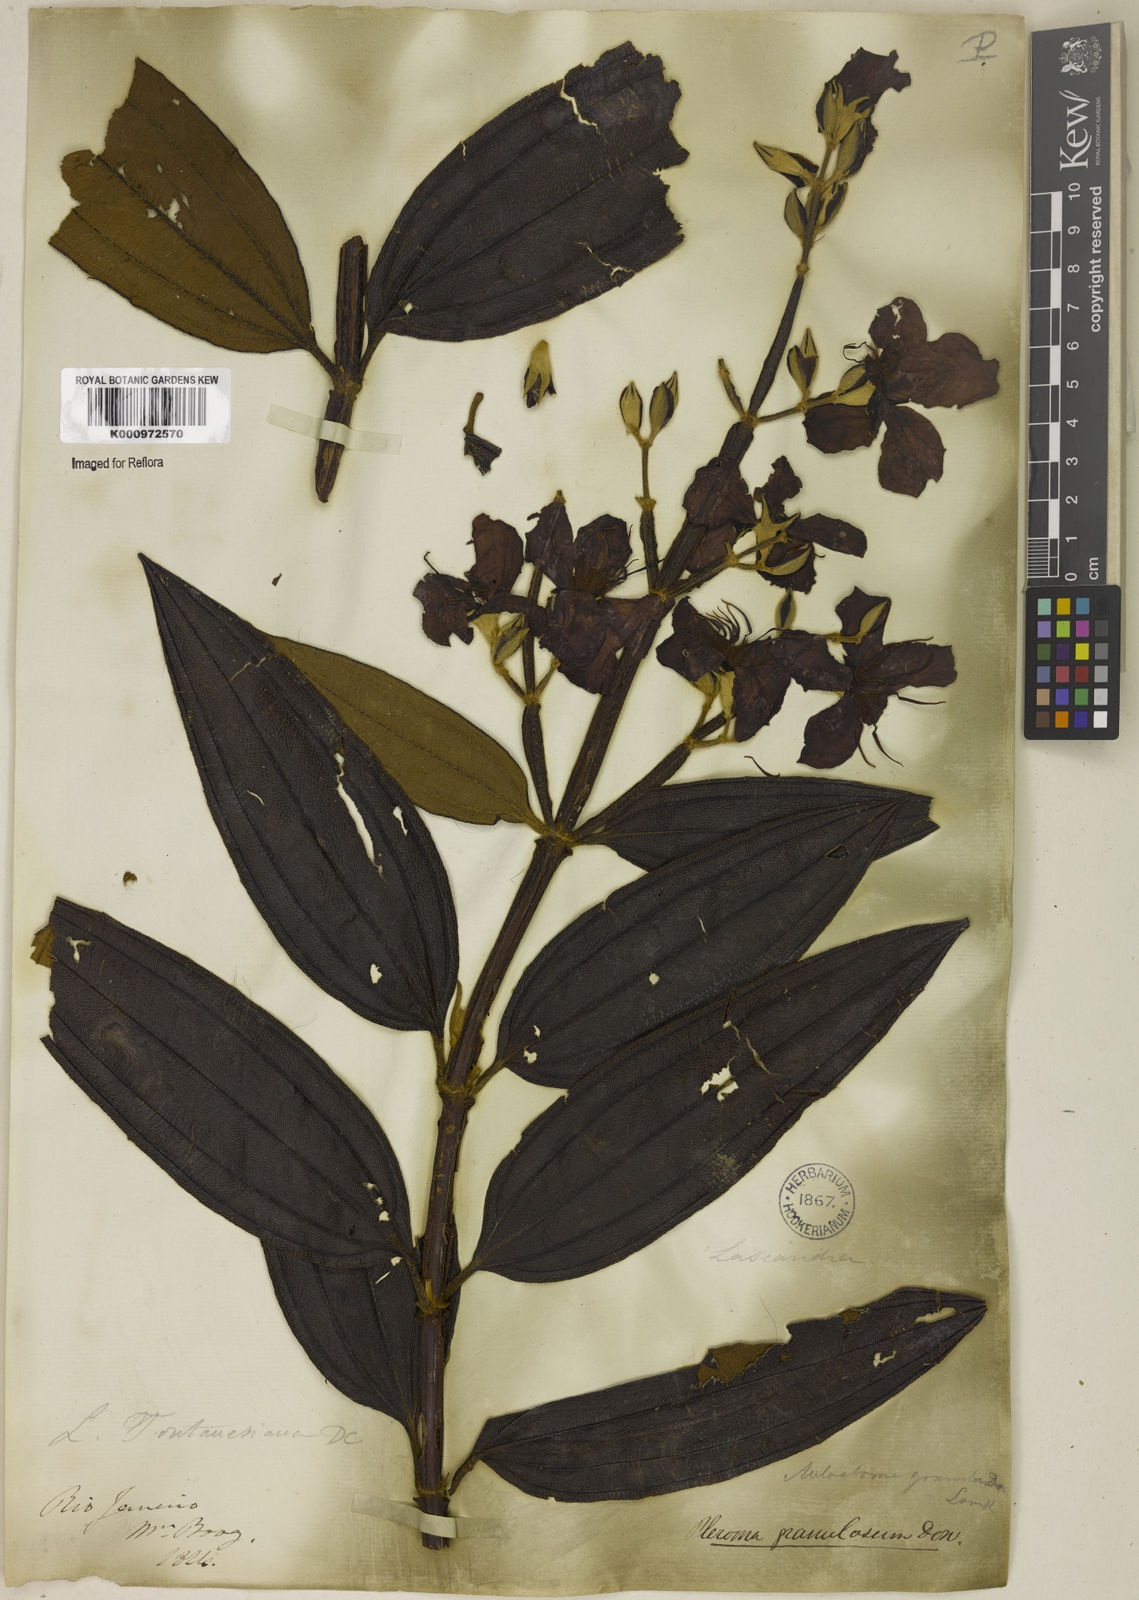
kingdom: Plantae
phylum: Tracheophyta
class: Magnoliopsida
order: Myrtales
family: Melastomataceae
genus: Pleroma
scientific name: Pleroma granulosum
